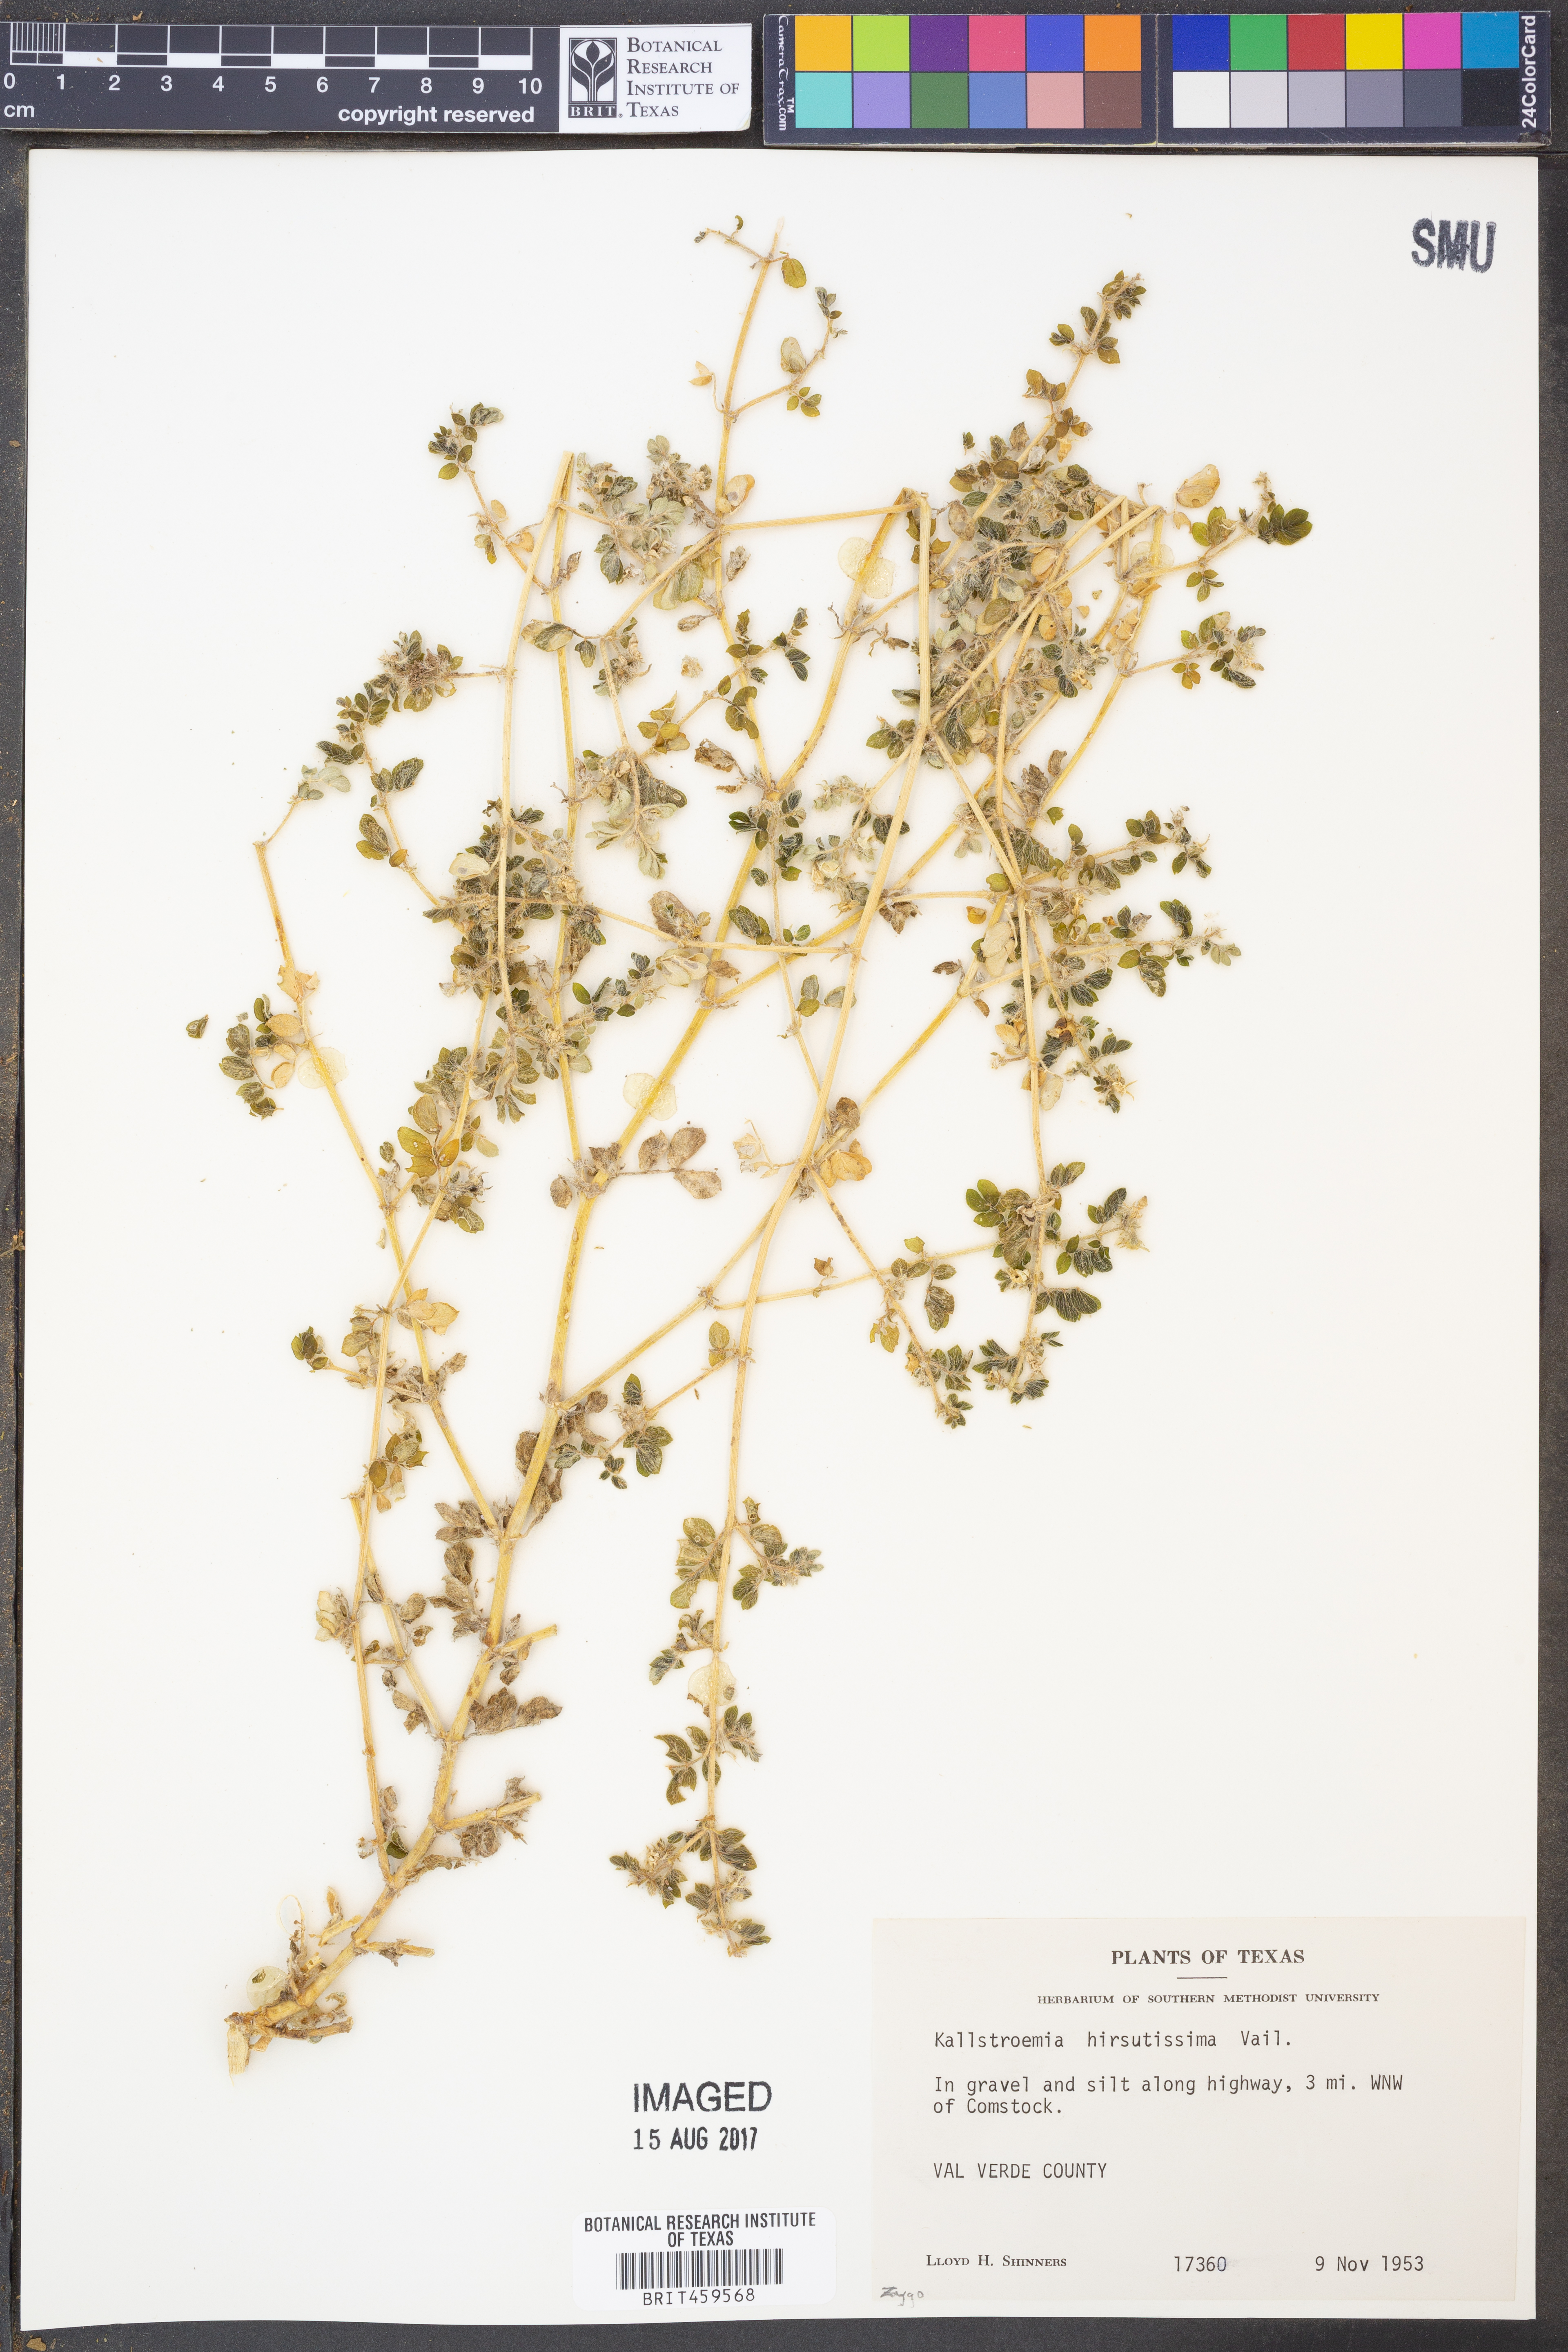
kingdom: Plantae
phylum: Tracheophyta
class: Magnoliopsida
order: Zygophyllales
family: Zygophyllaceae
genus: Kallstroemia
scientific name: Kallstroemia hirsutissima
